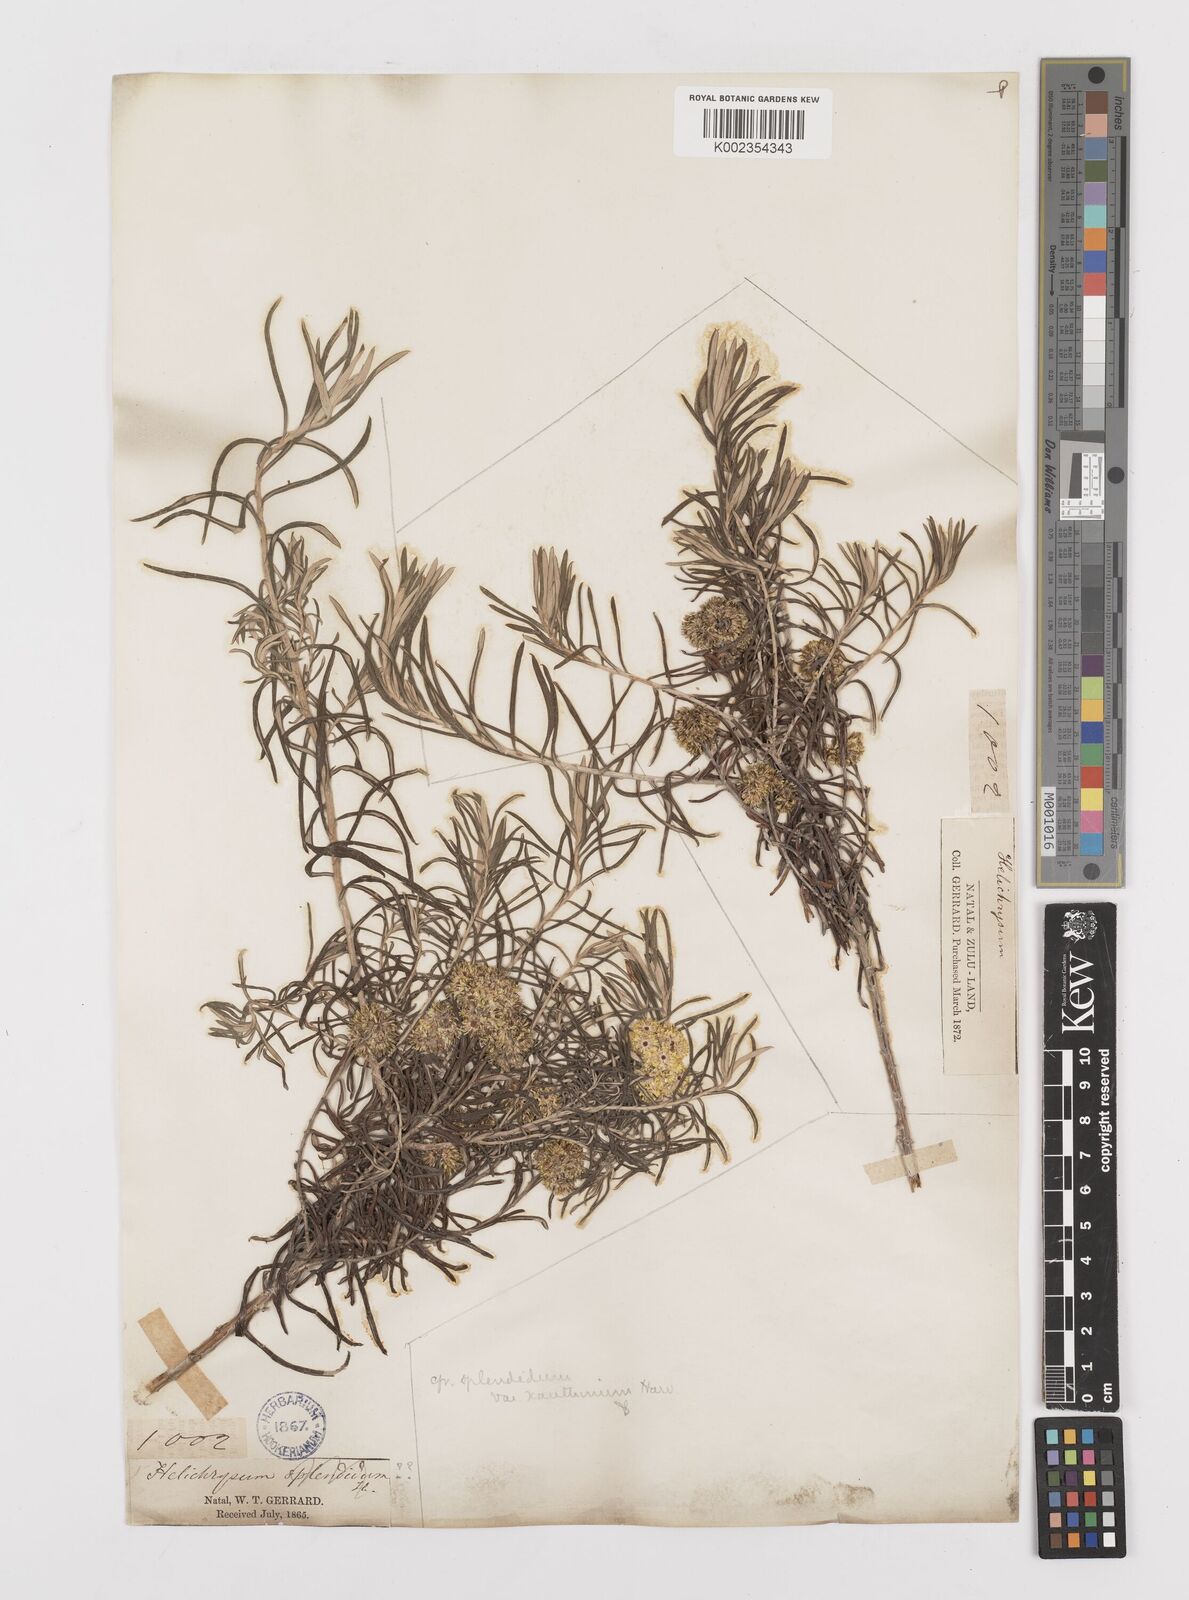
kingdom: Plantae
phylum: Tracheophyta
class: Magnoliopsida
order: Asterales
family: Asteraceae
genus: Helichrysum
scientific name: Helichrysum splendidum
